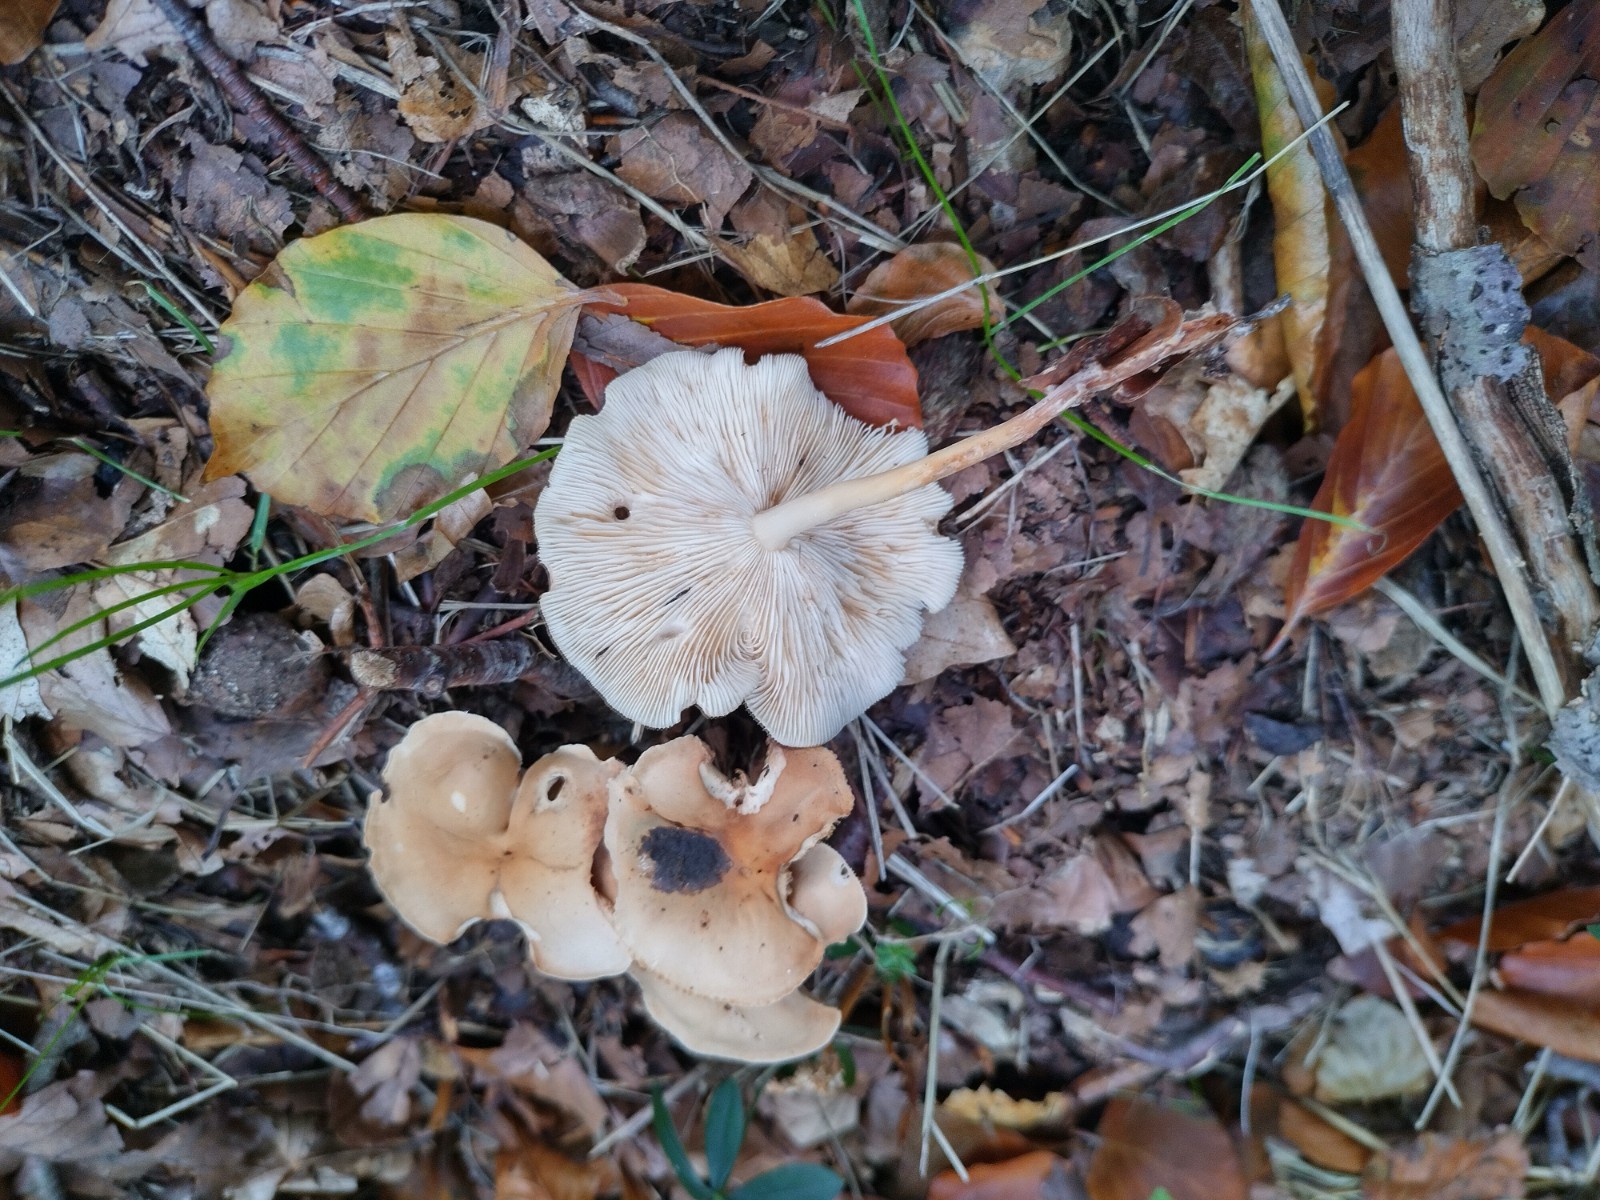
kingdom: Fungi
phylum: Basidiomycota
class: Agaricomycetes
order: Agaricales
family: Omphalotaceae
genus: Gymnopus
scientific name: Gymnopus dryophilus
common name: løv-fladhat
